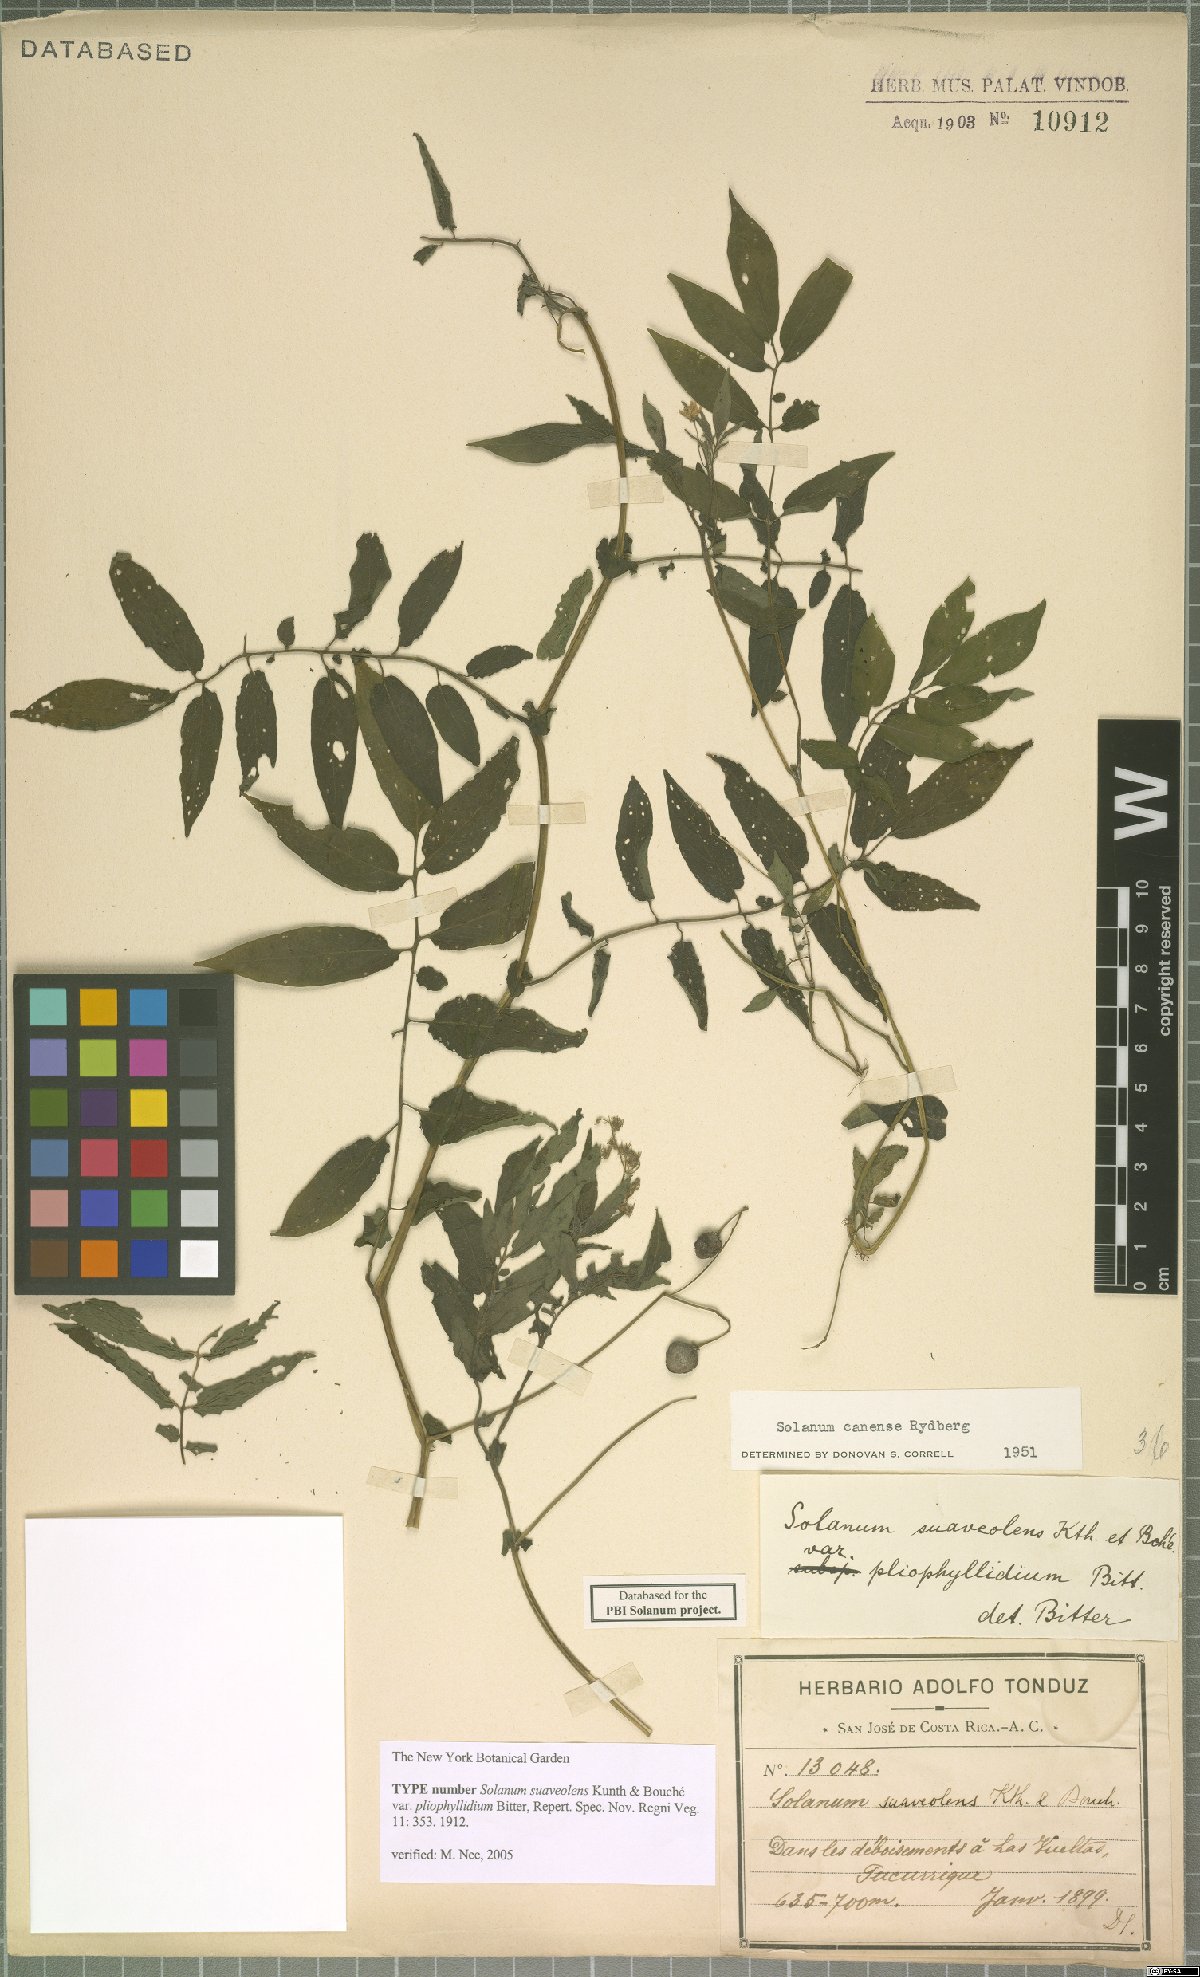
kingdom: Plantae
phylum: Tracheophyta
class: Magnoliopsida
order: Solanales
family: Solanaceae
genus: Solanum
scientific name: Solanum canense
